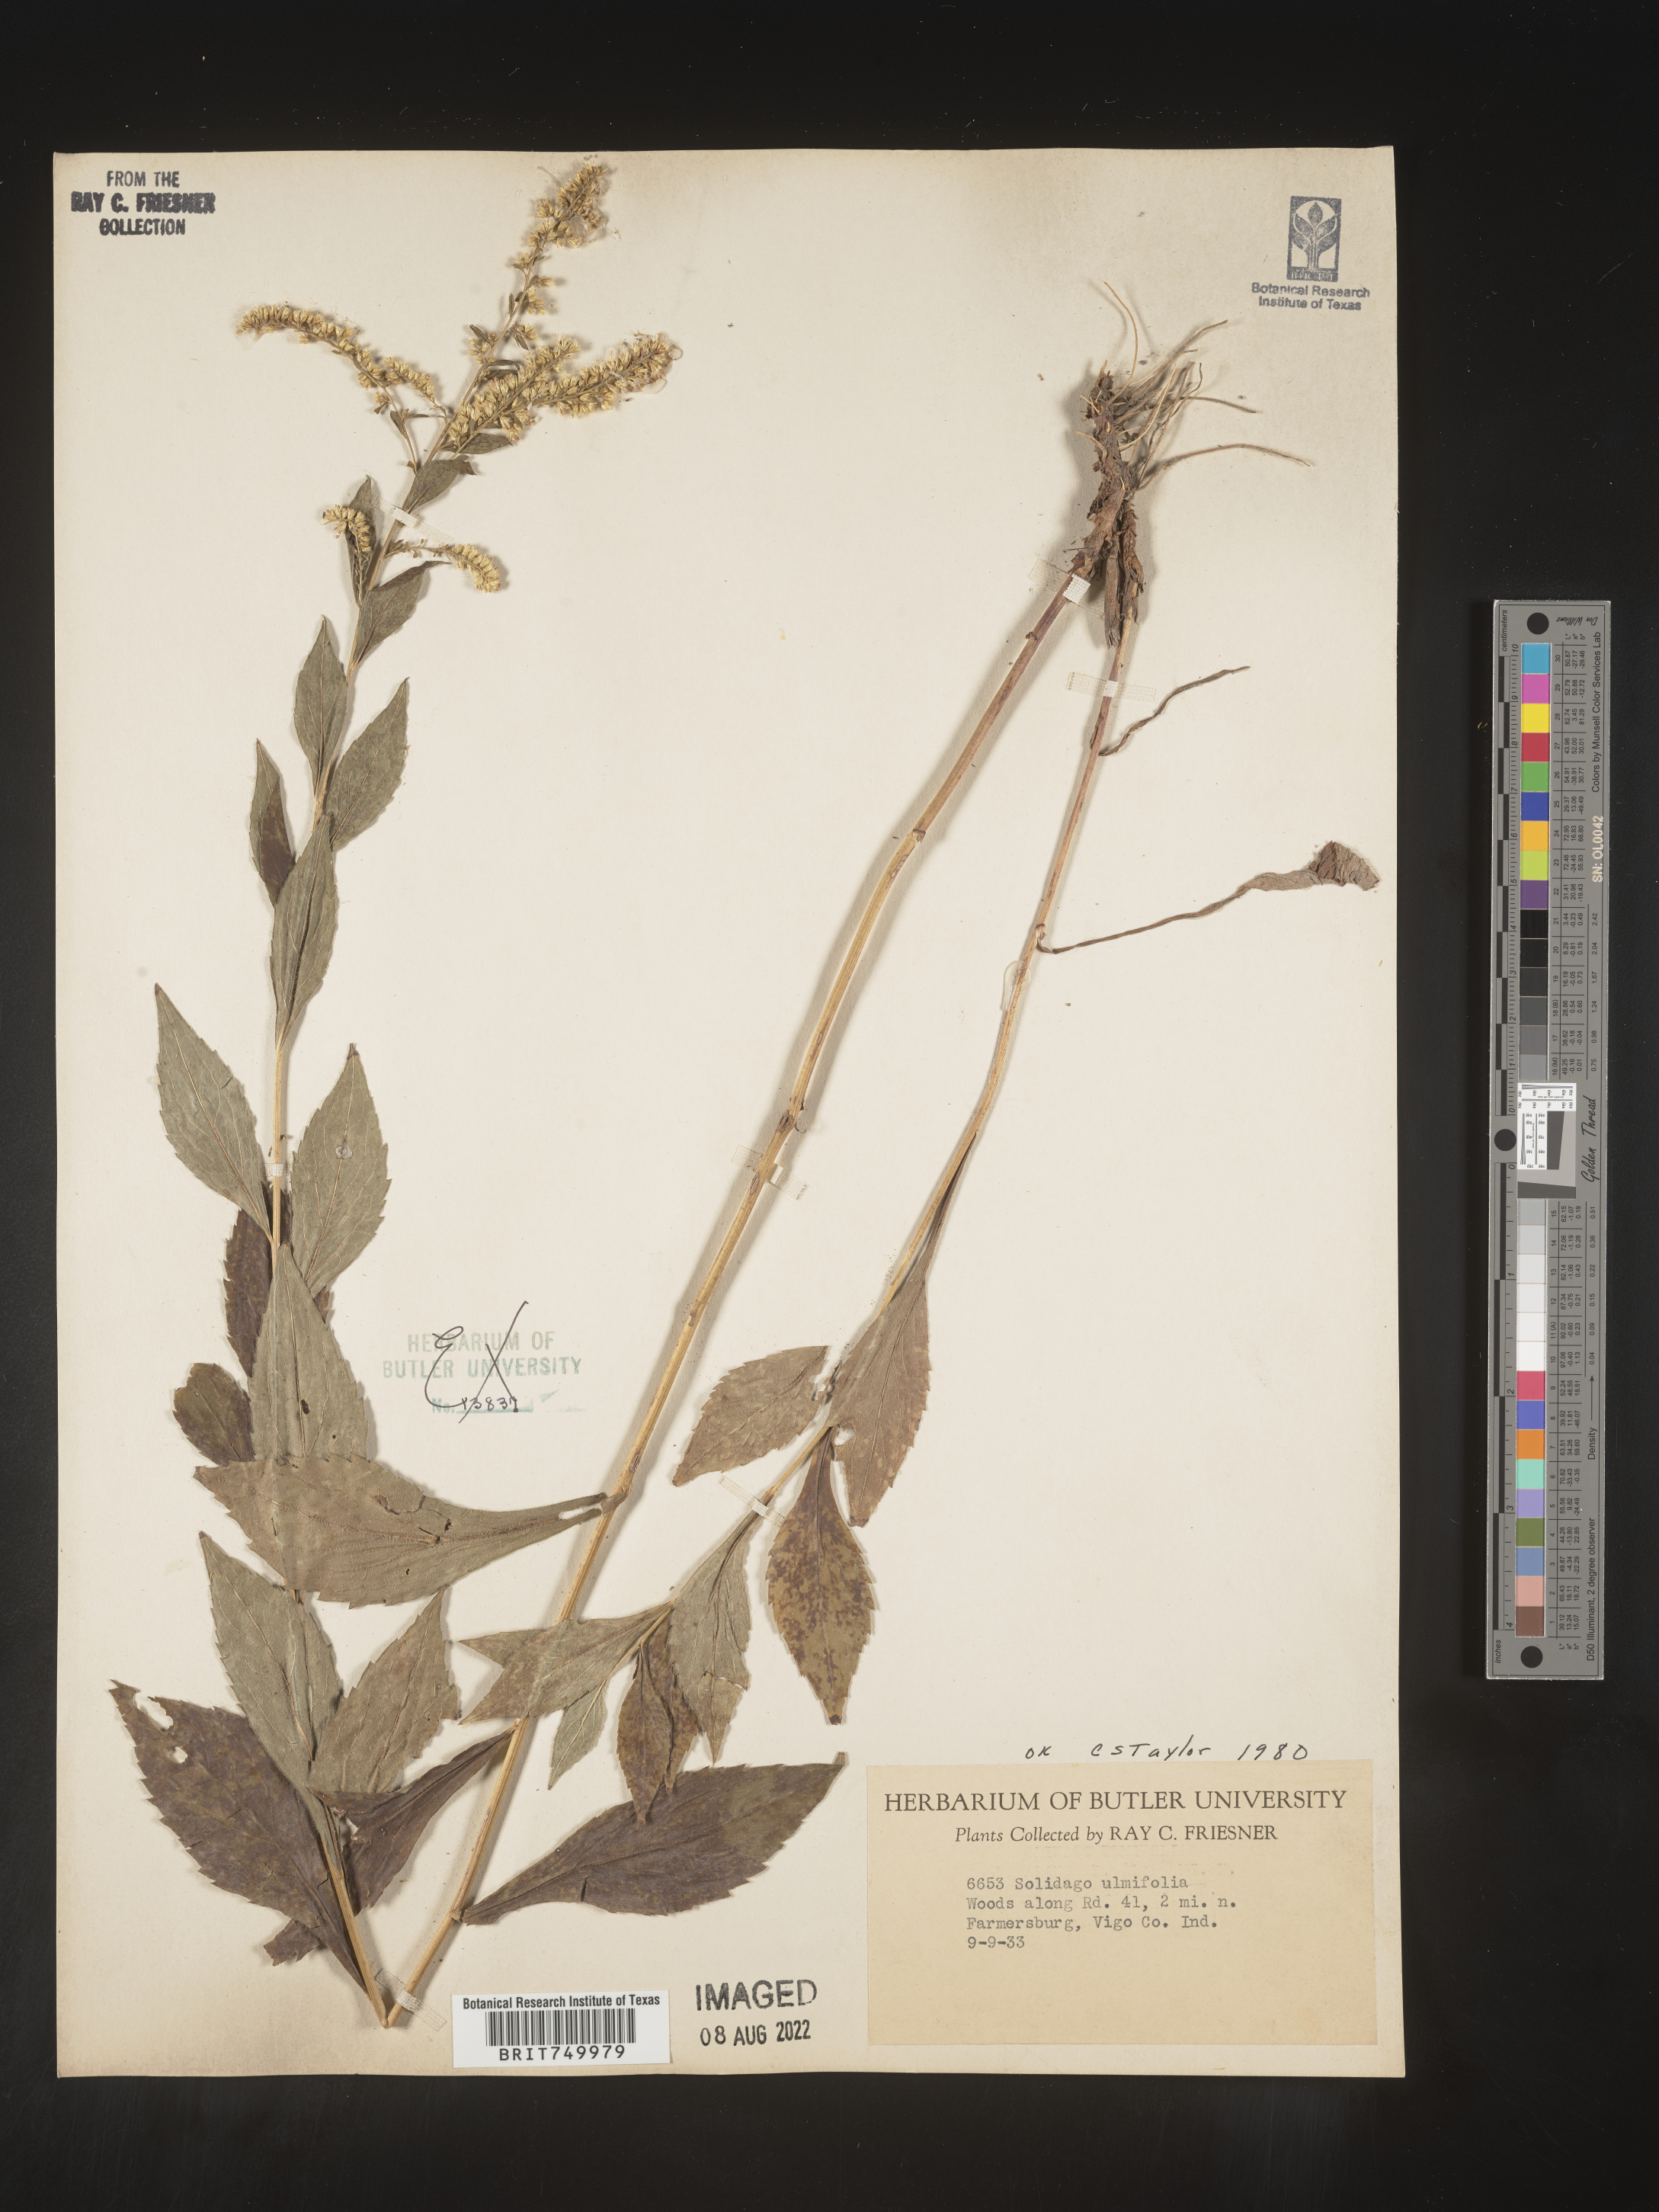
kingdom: Plantae
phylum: Tracheophyta
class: Magnoliopsida
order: Asterales
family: Asteraceae
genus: Solidago
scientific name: Solidago ulmifolia
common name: Elm-leaf goldenrod
